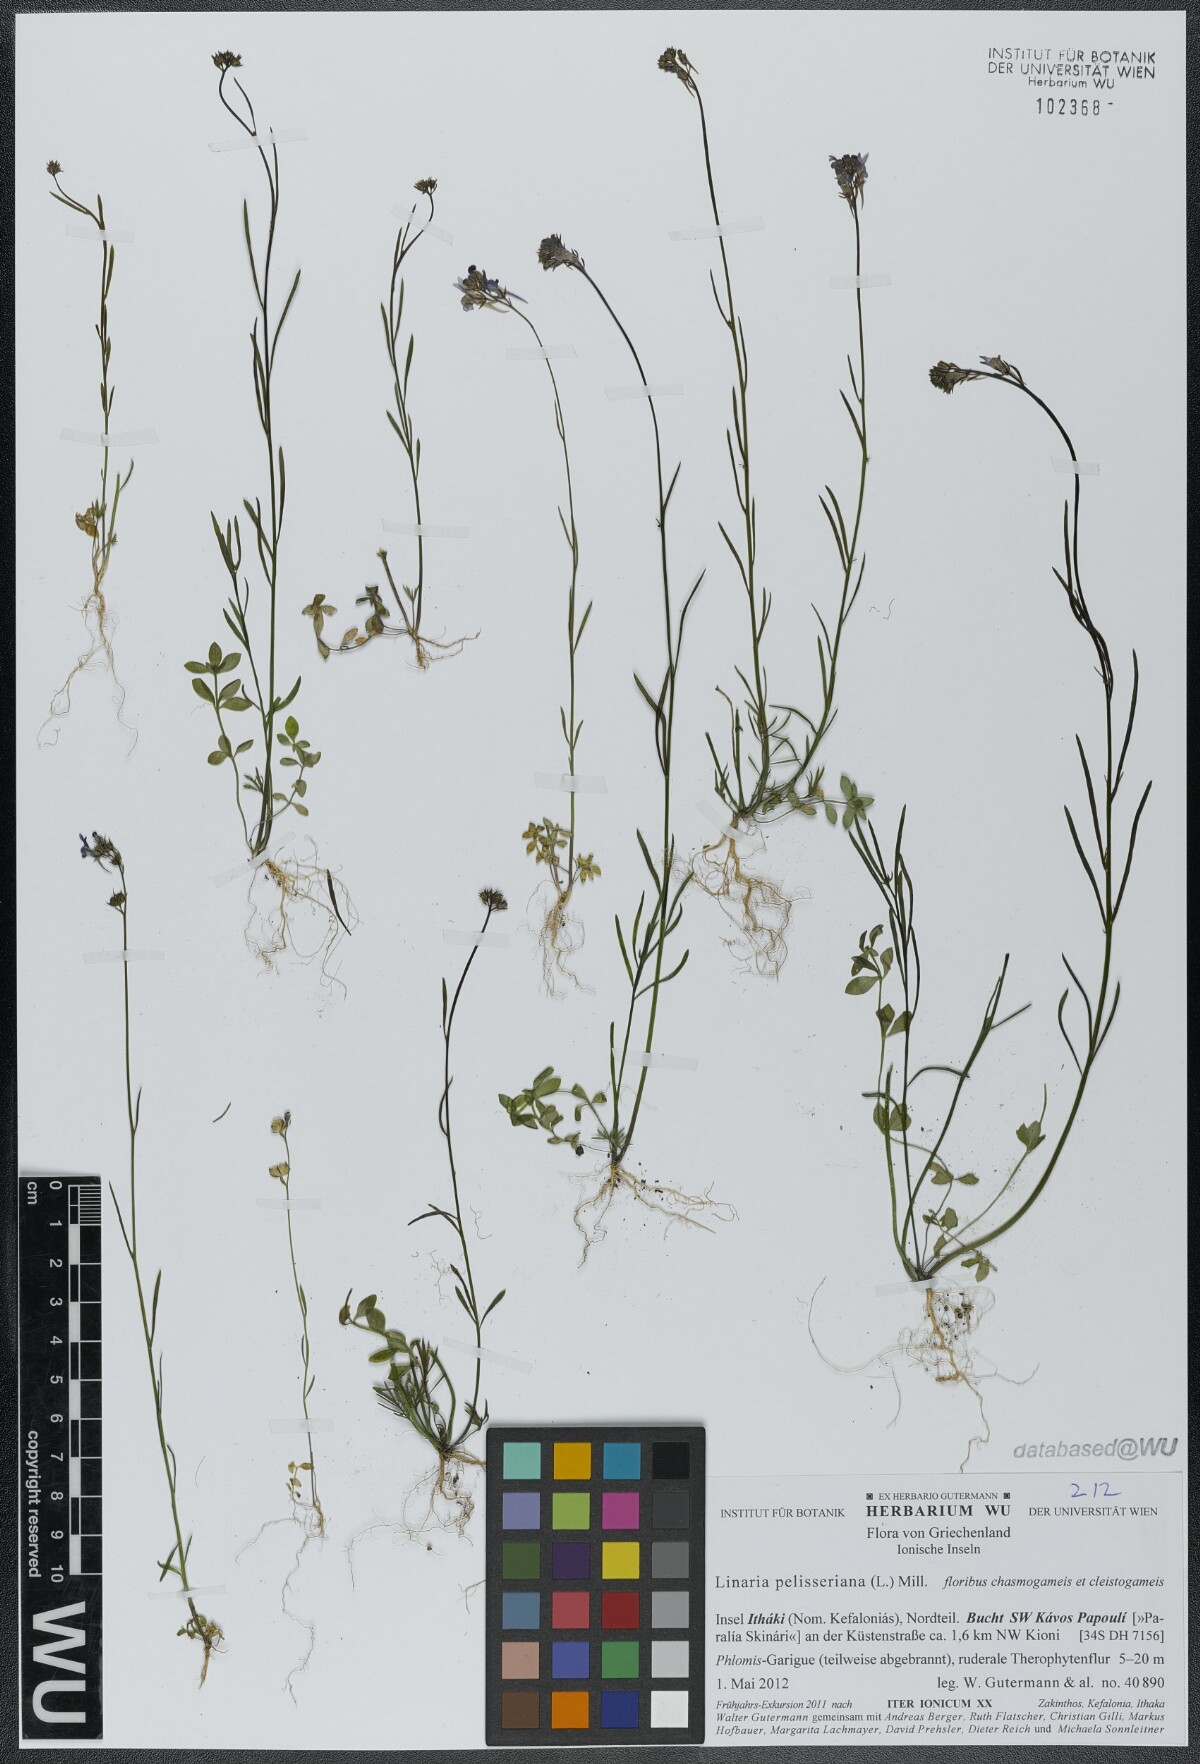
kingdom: Plantae
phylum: Tracheophyta
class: Magnoliopsida
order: Lamiales
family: Plantaginaceae
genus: Linaria
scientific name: Linaria pelisseriana
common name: Jersey toadflax
